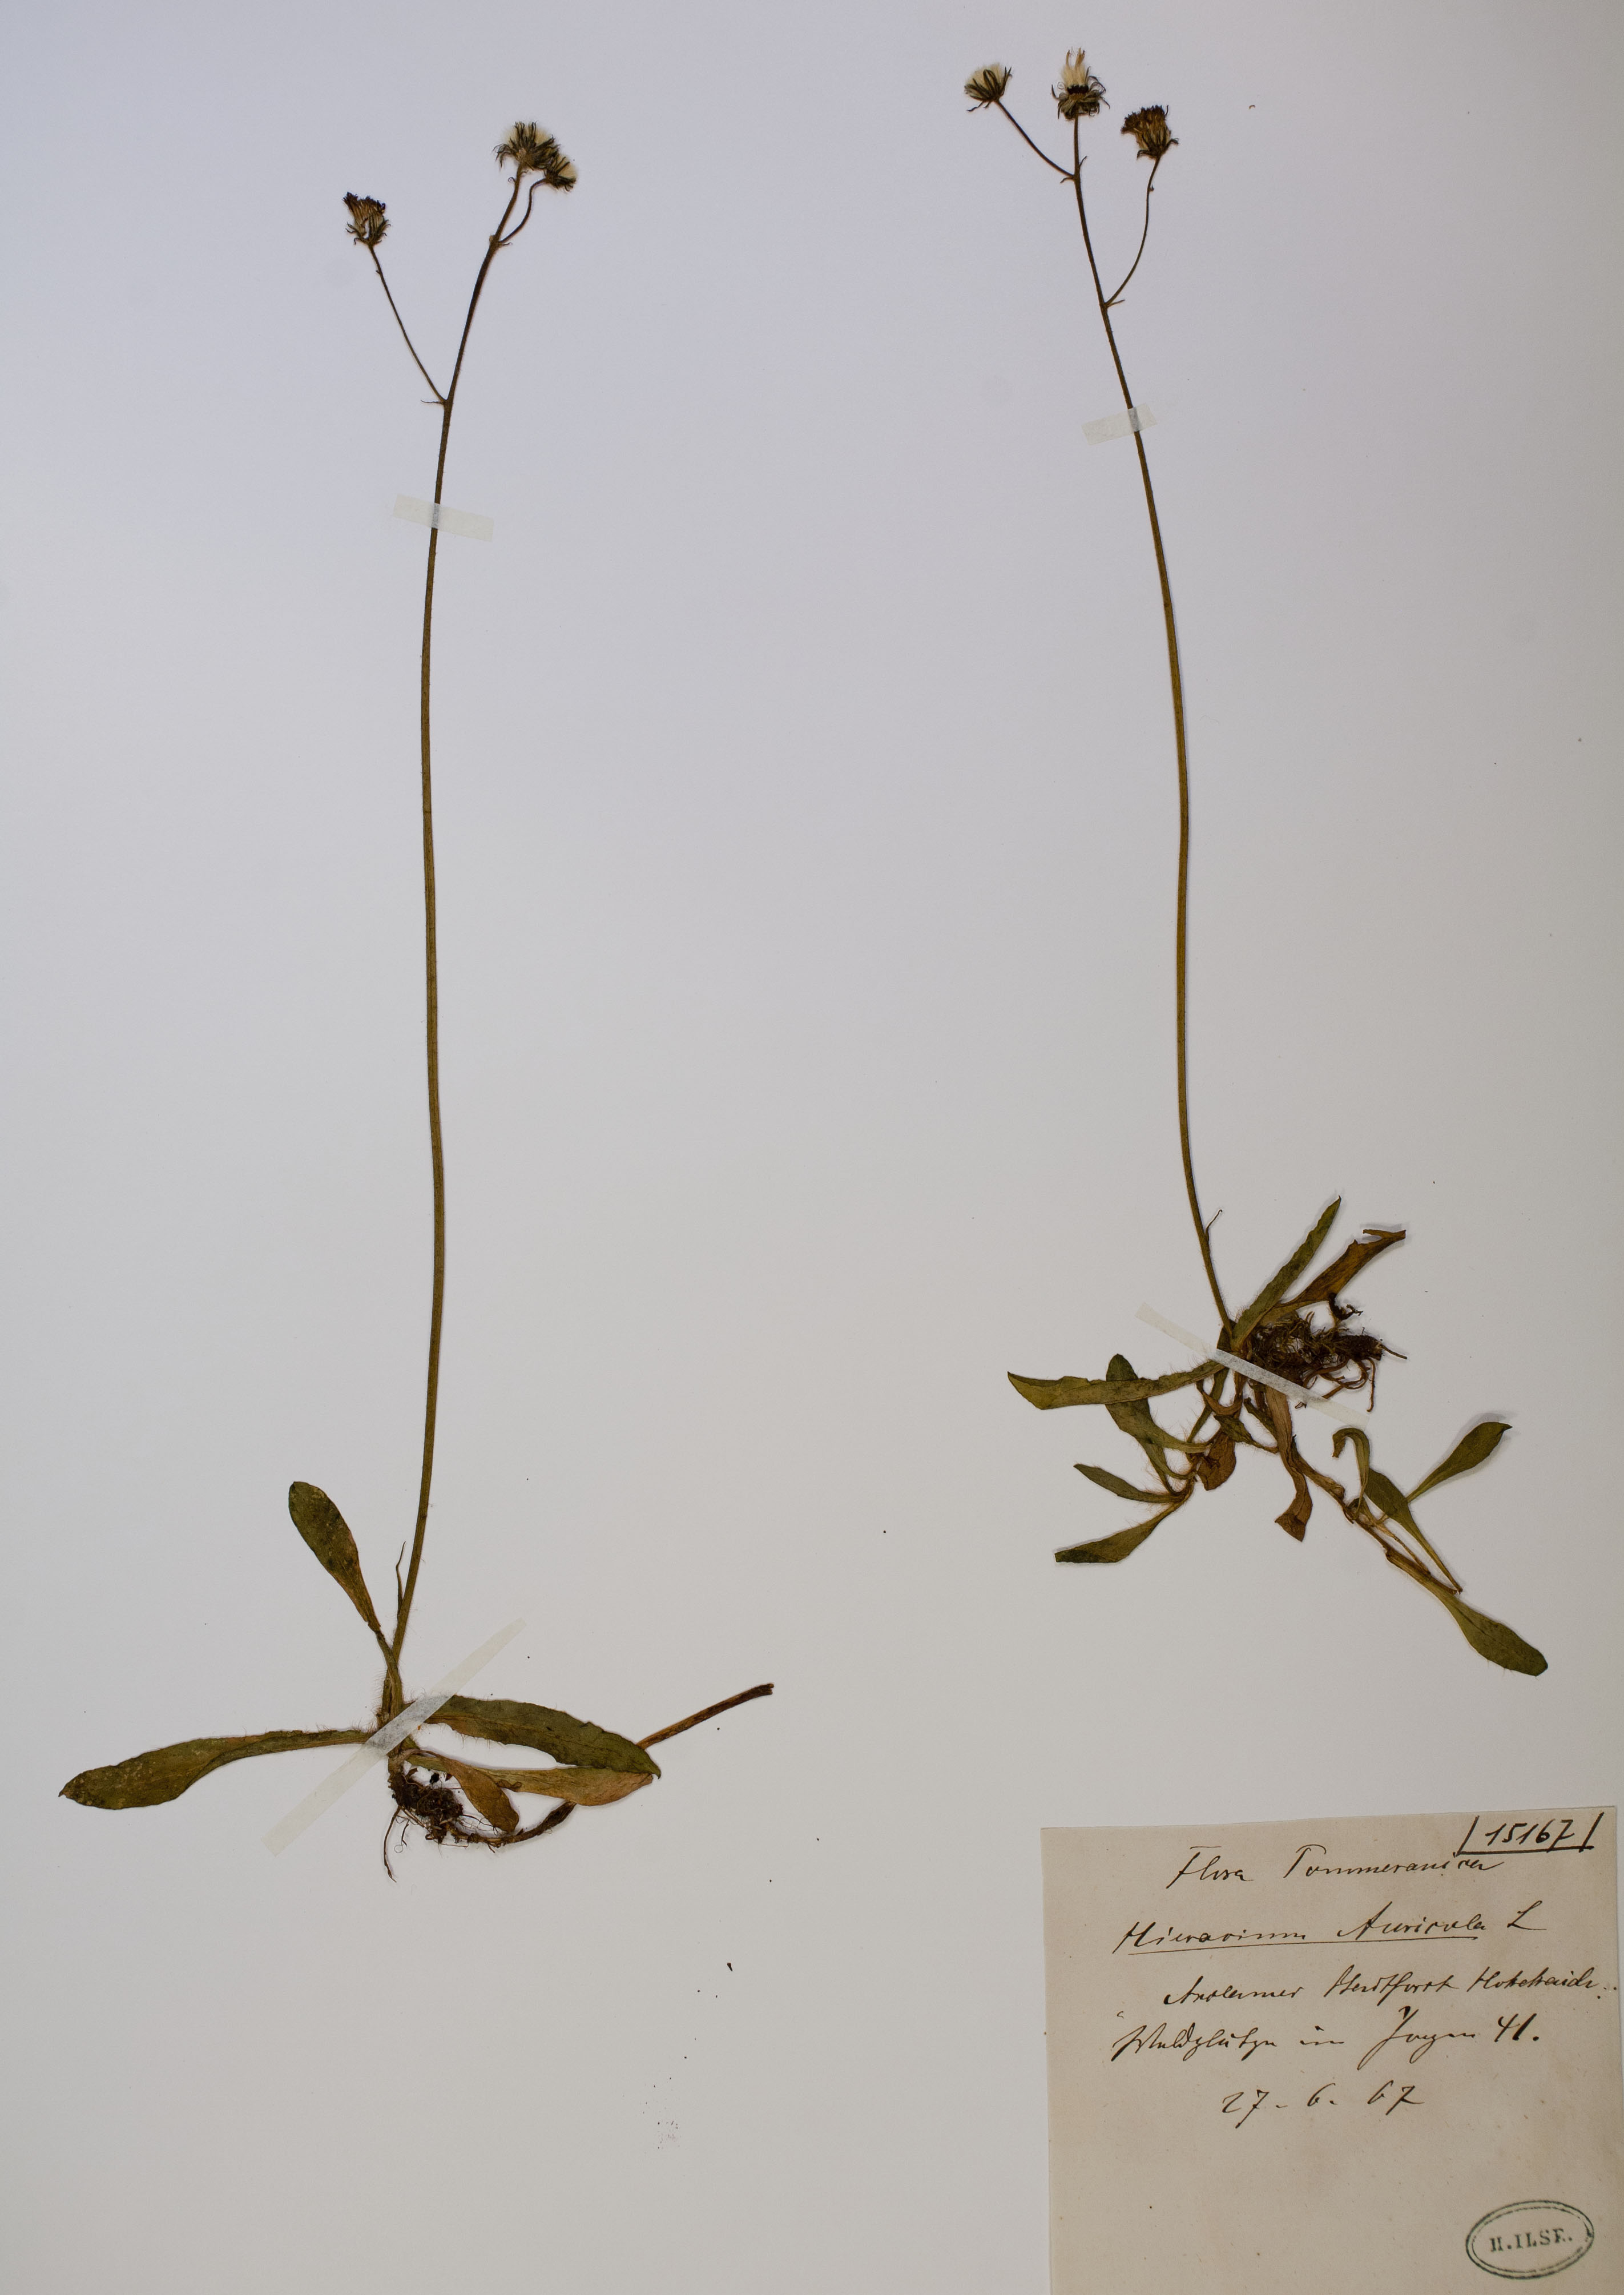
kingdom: Plantae
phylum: Tracheophyta
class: Magnoliopsida
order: Asterales
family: Asteraceae
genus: Pilosella
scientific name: Pilosella floribunda
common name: Glaucous hawkweed
